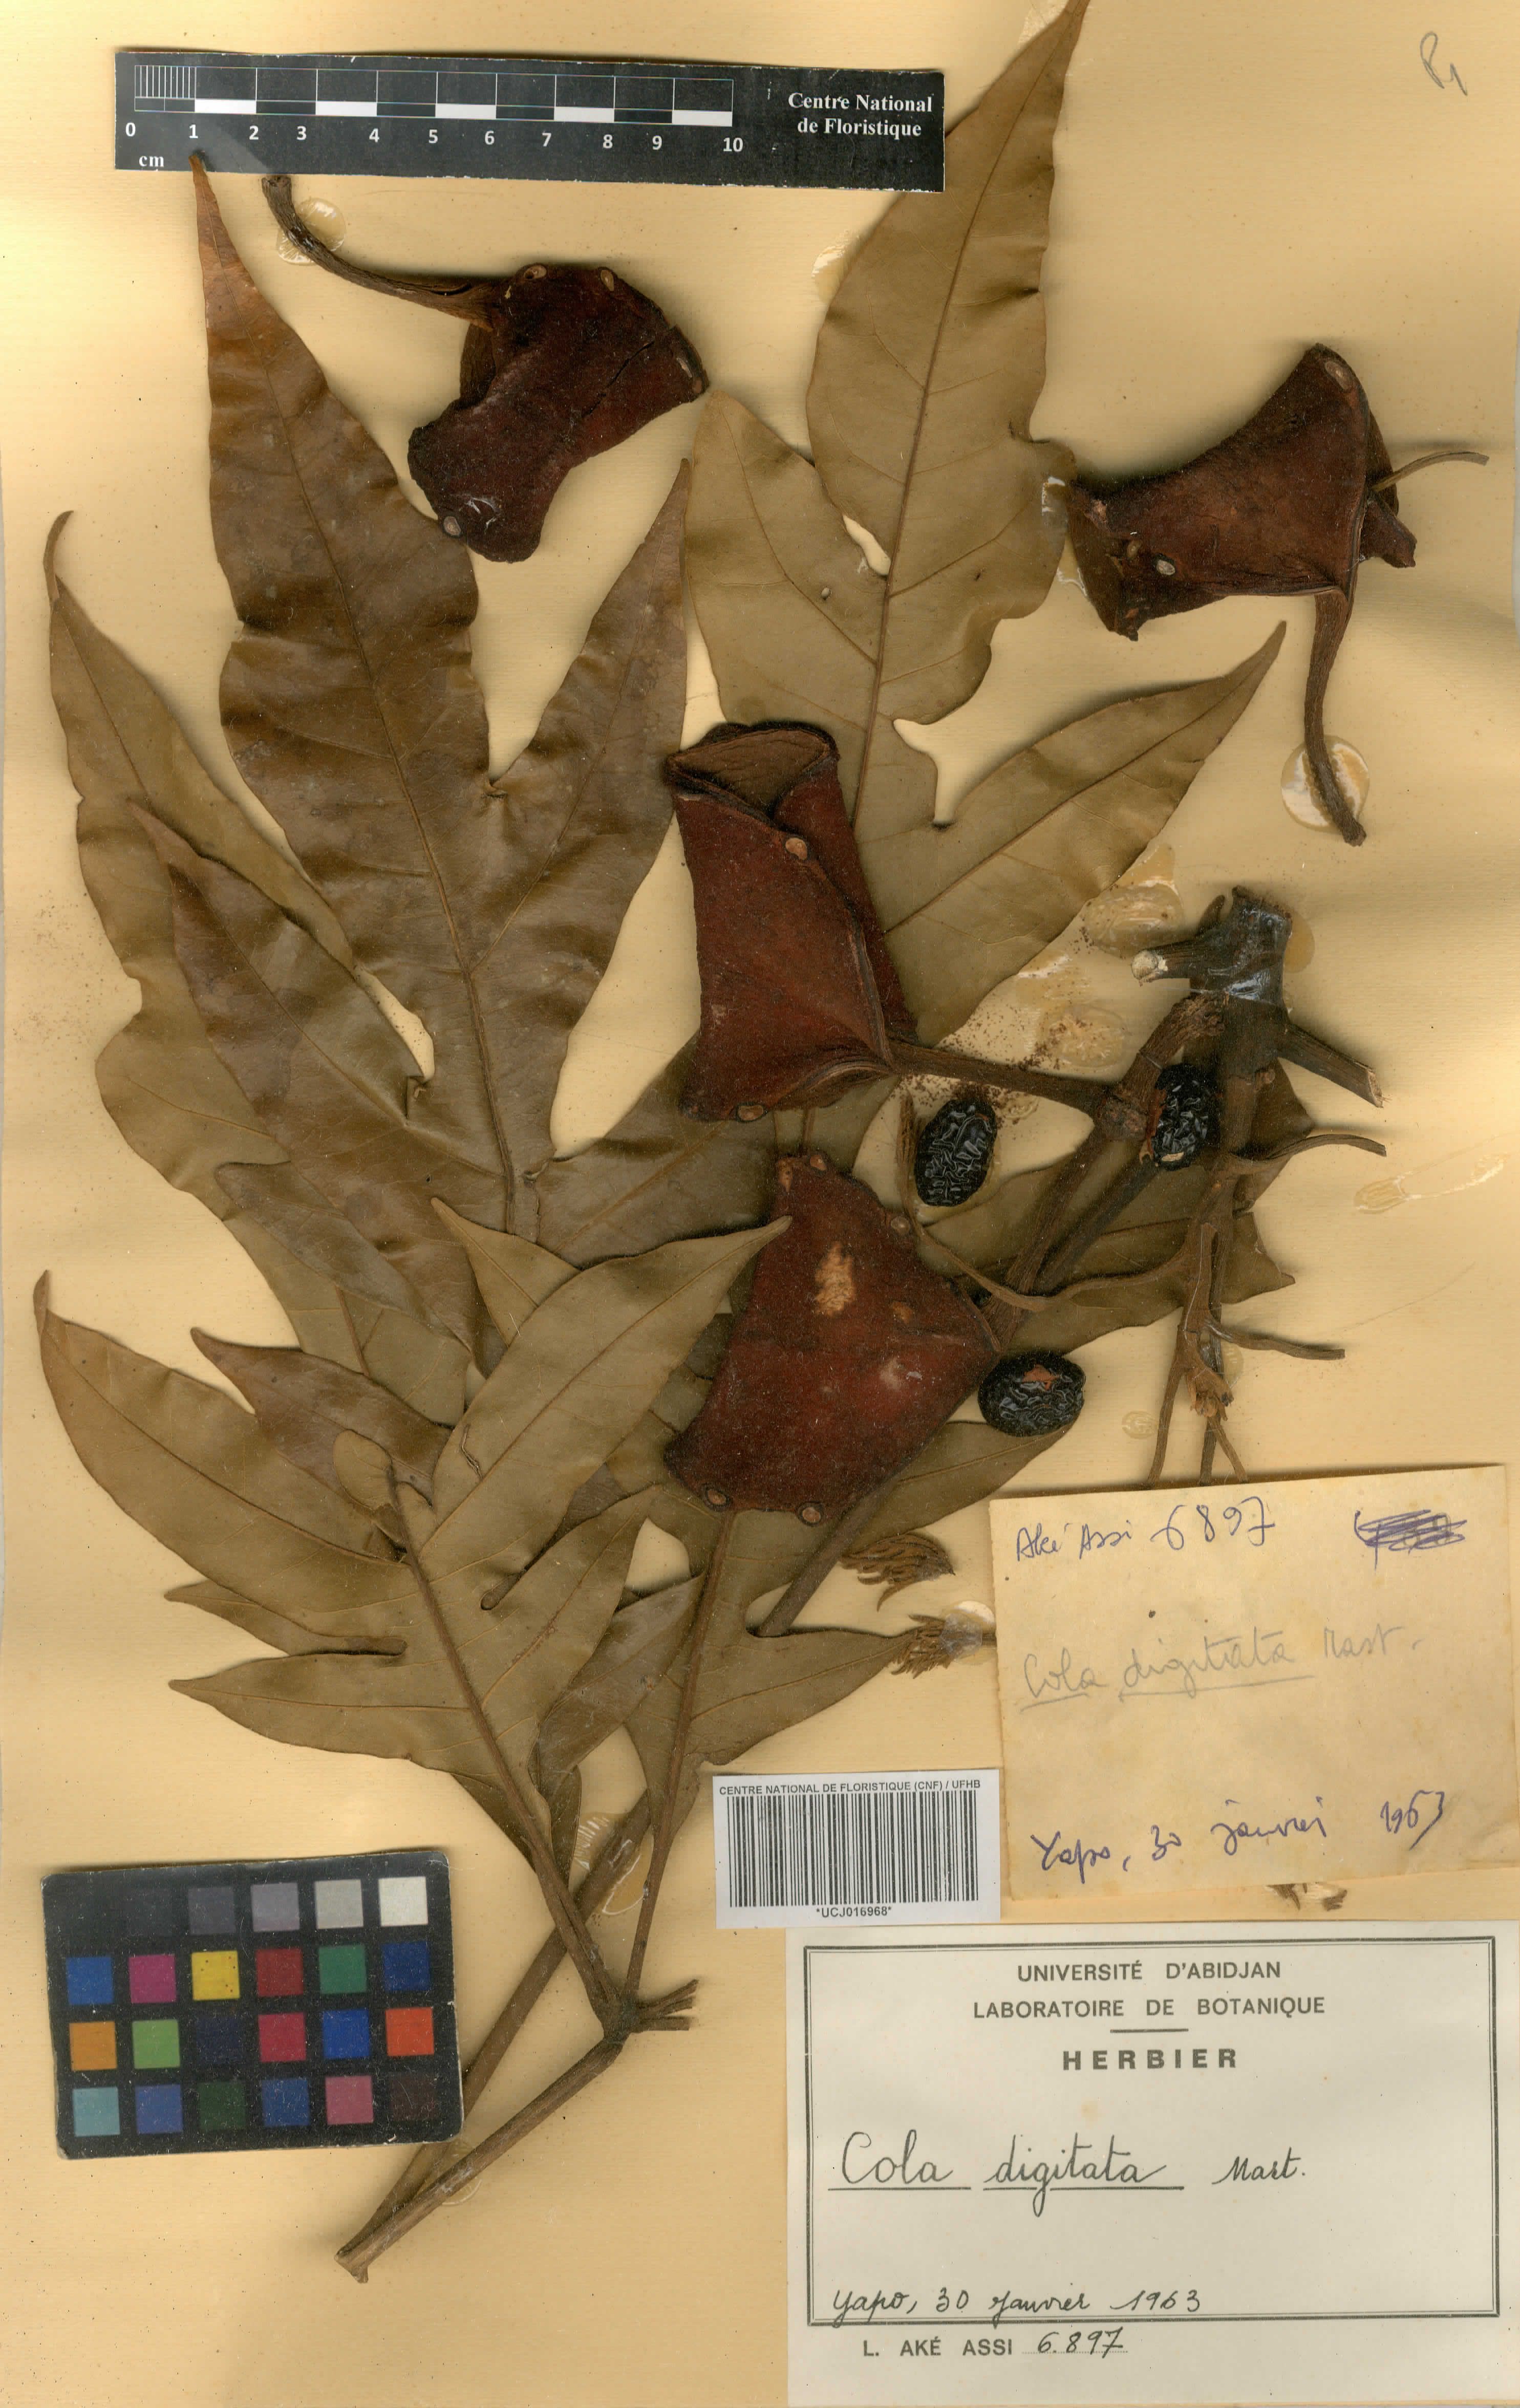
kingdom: Plantae
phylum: Tracheophyta
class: Magnoliopsida
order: Malvales
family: Malvaceae
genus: Cola
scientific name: Cola digitata
